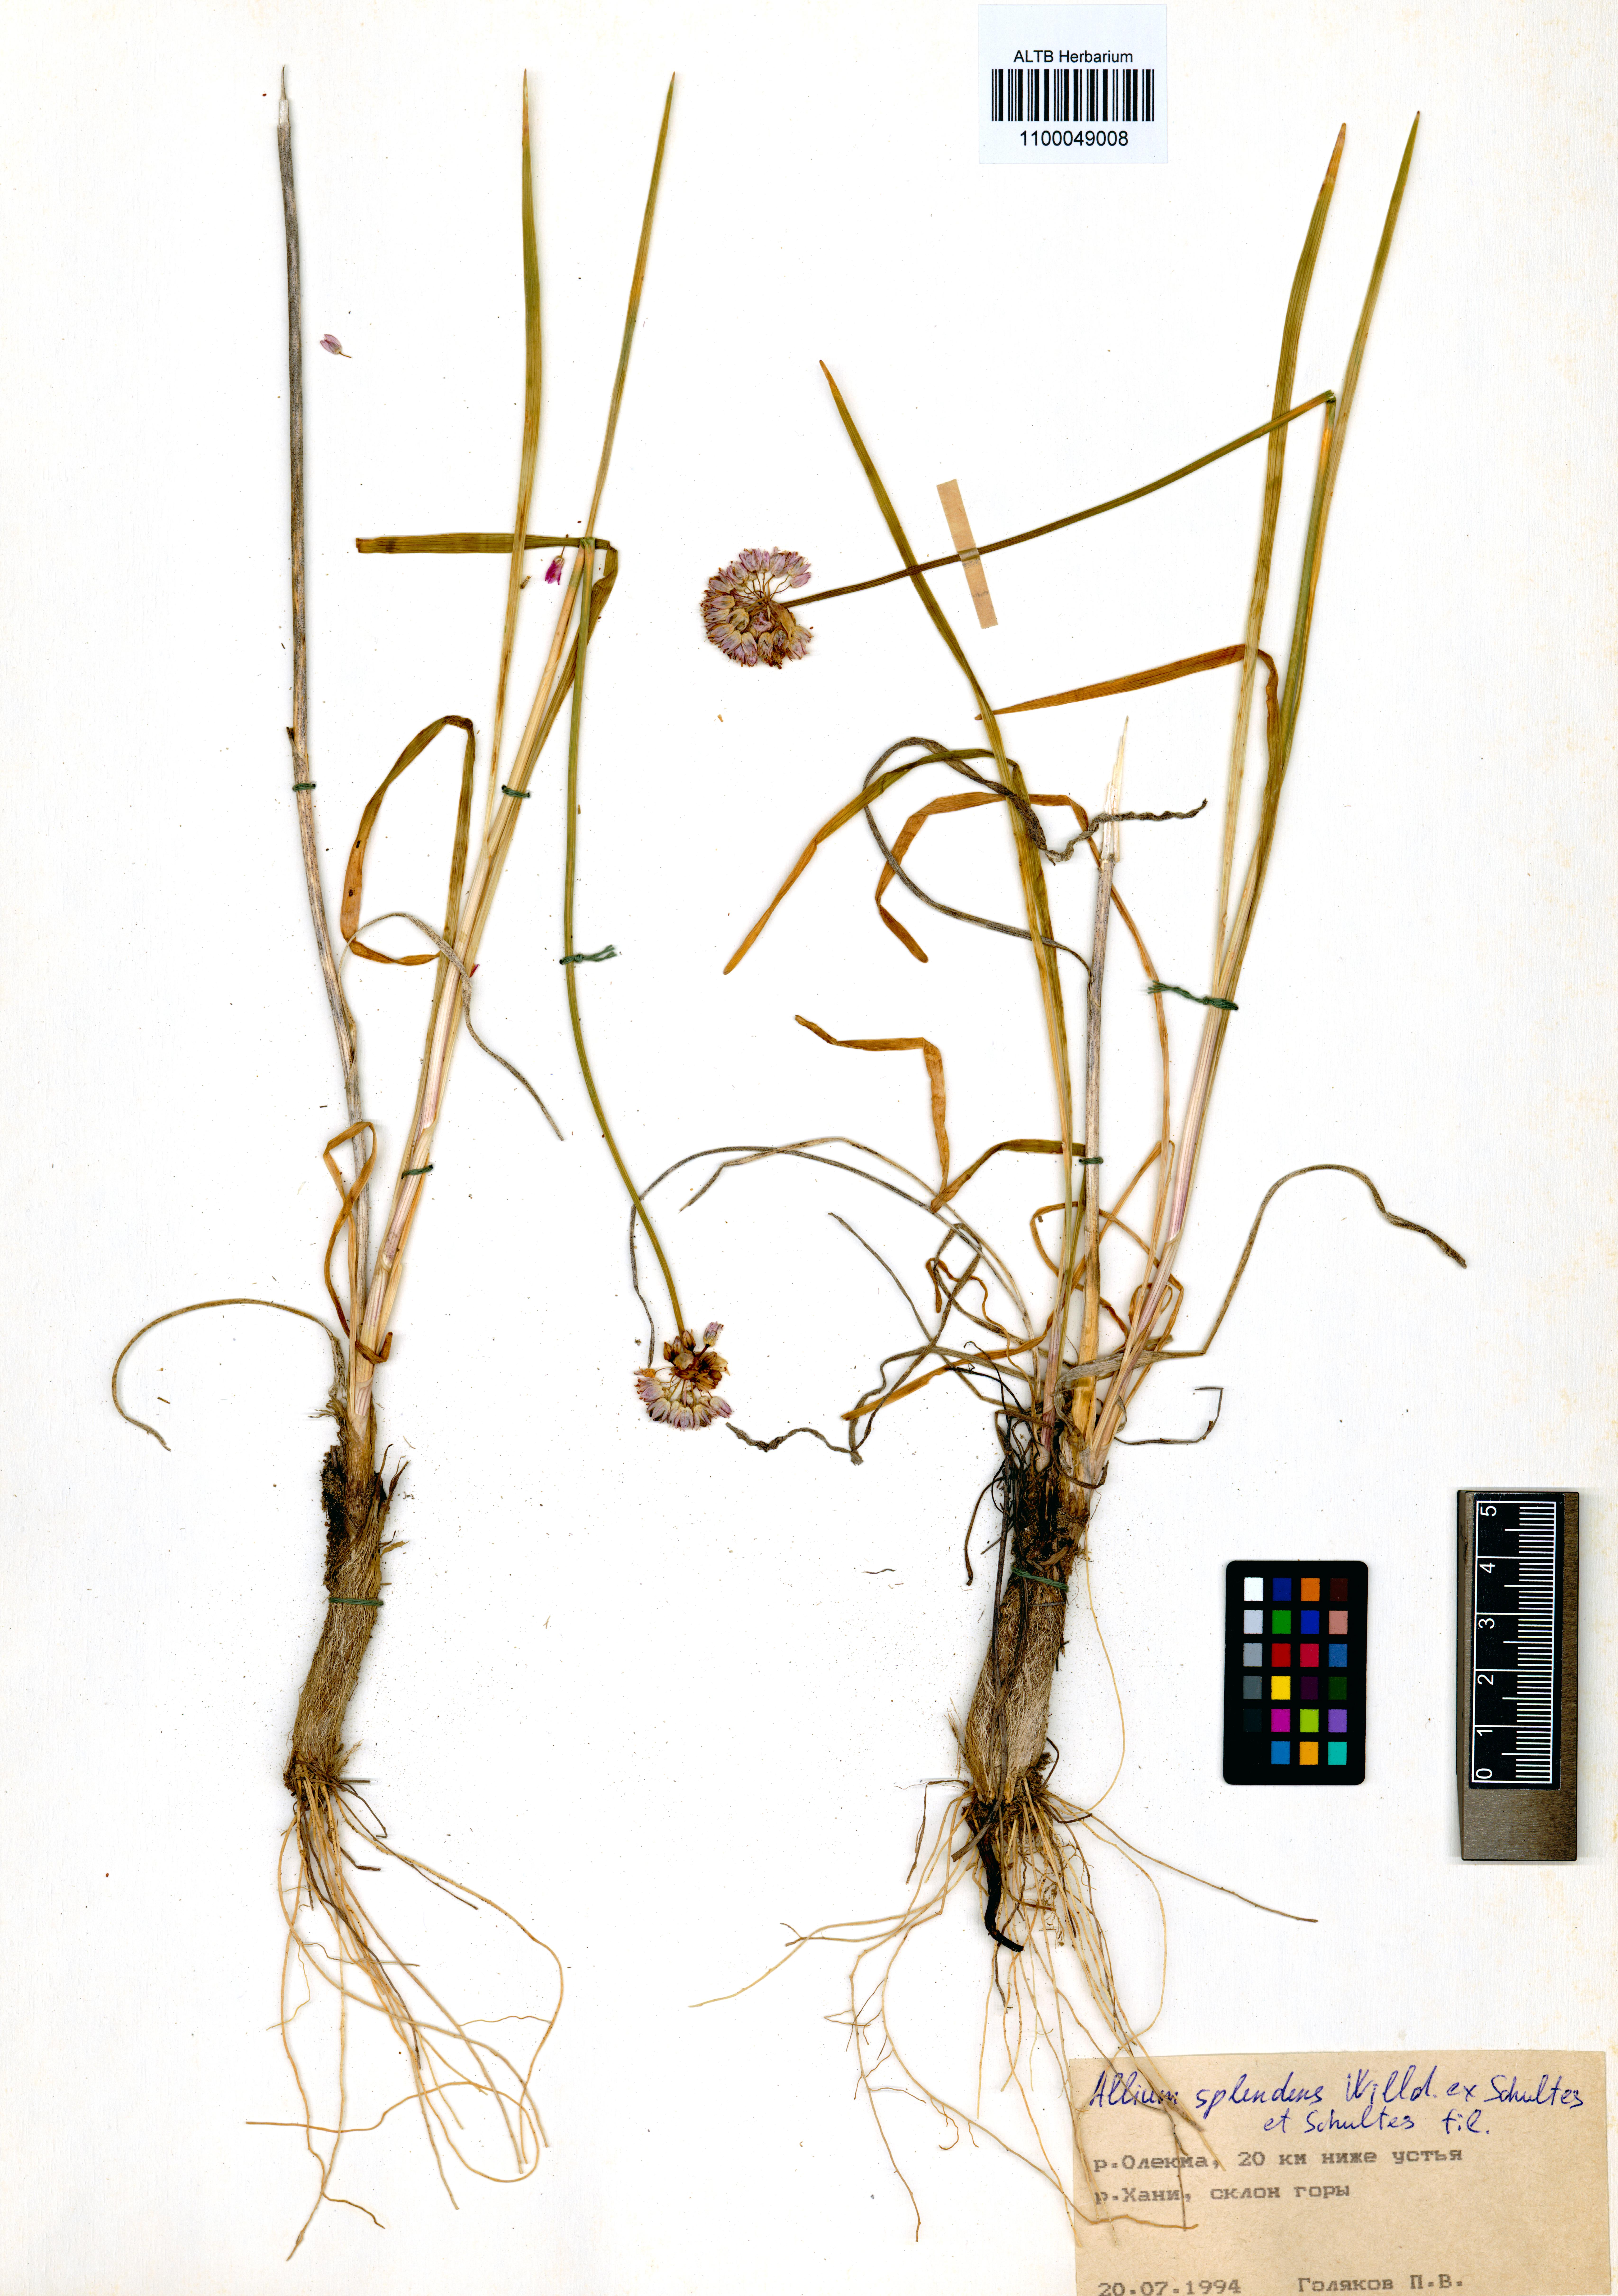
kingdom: Plantae
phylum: Tracheophyta
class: Liliopsida
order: Asparagales
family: Amaryllidaceae
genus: Allium
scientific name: Allium splendens
